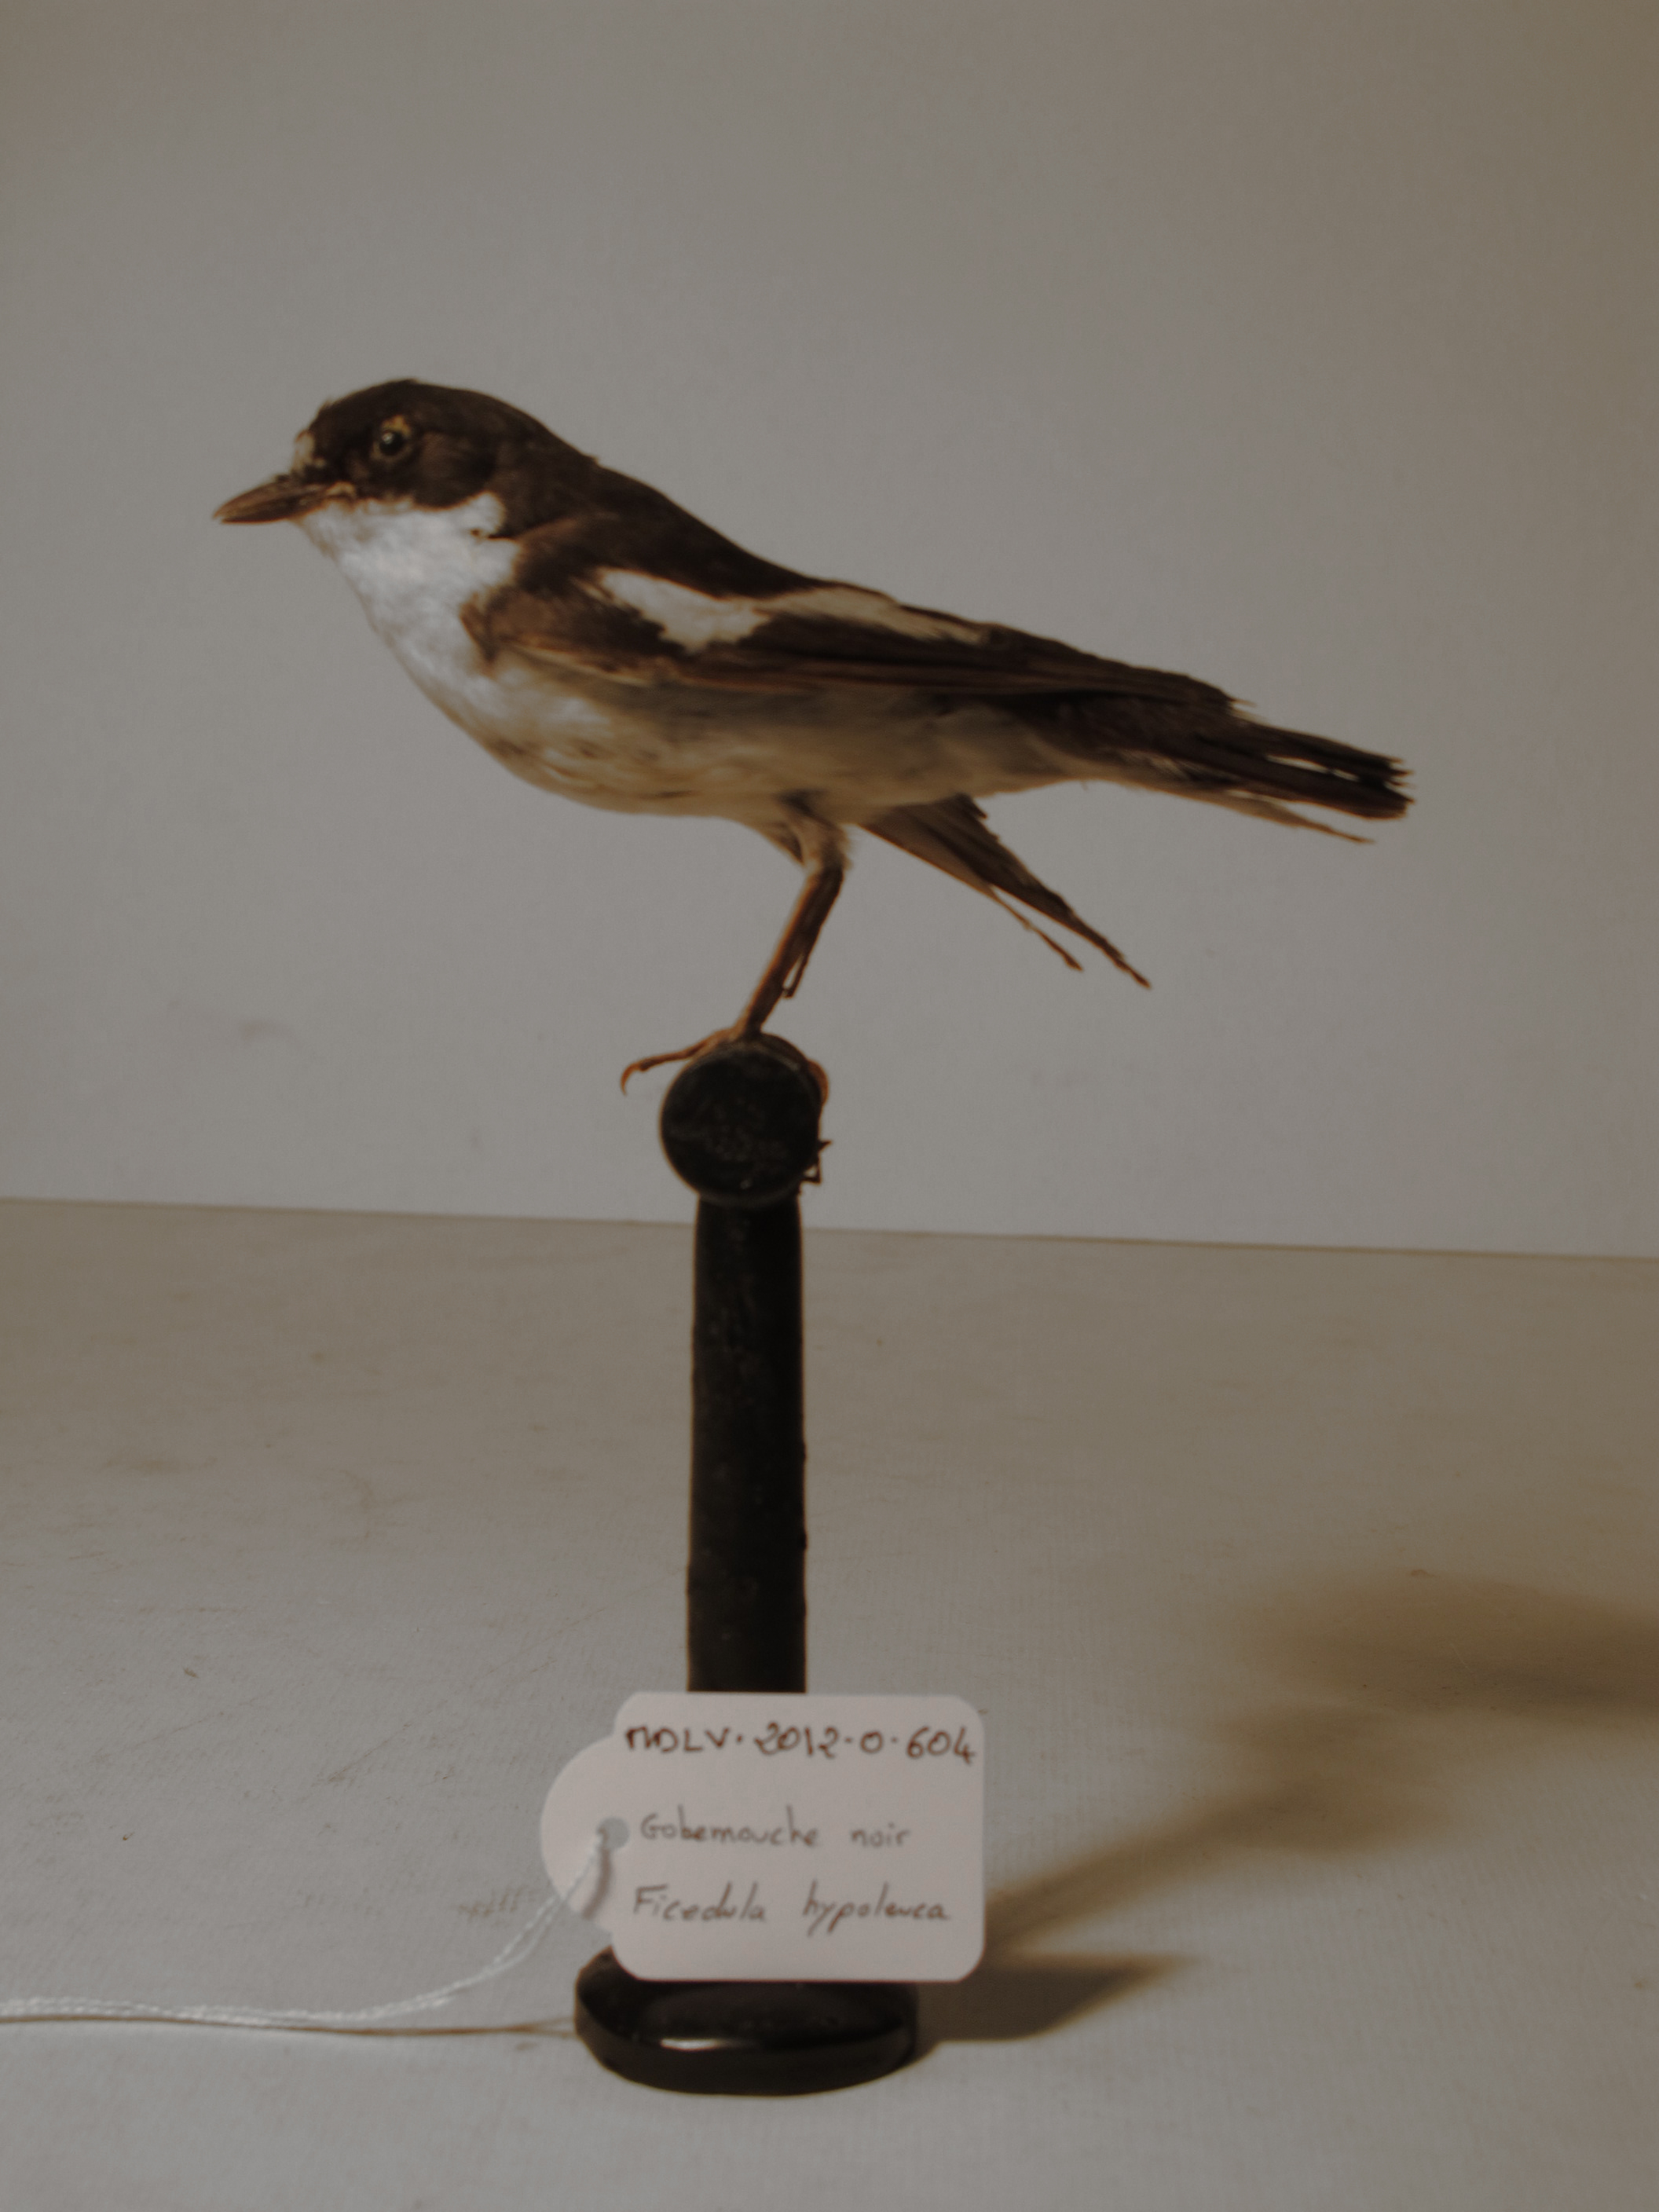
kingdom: Animalia
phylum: Chordata
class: Aves
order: Passeriformes
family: Muscicapidae
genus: Ficedula
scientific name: Ficedula hypoleuca
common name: European Pied Flycatcher
